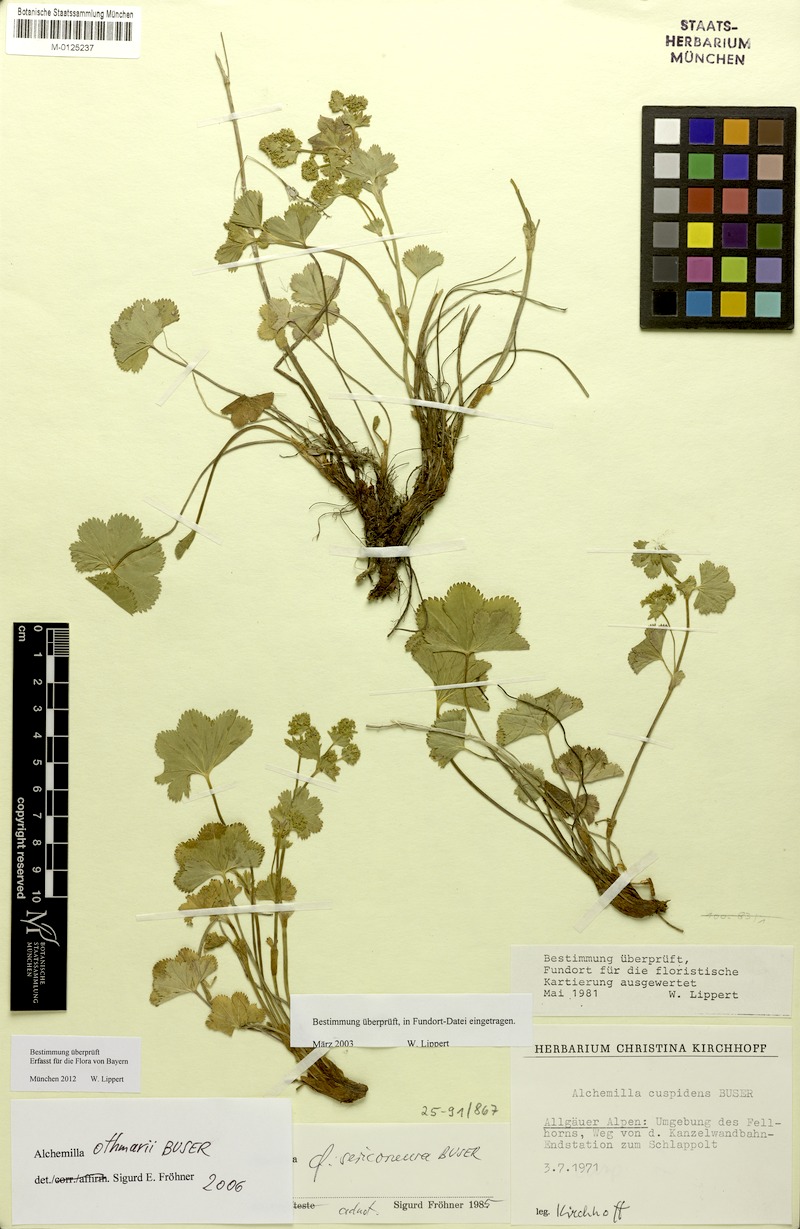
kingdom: Plantae
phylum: Tracheophyta
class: Magnoliopsida
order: Rosales
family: Rosaceae
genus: Alchemilla
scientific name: Alchemilla othmarii
